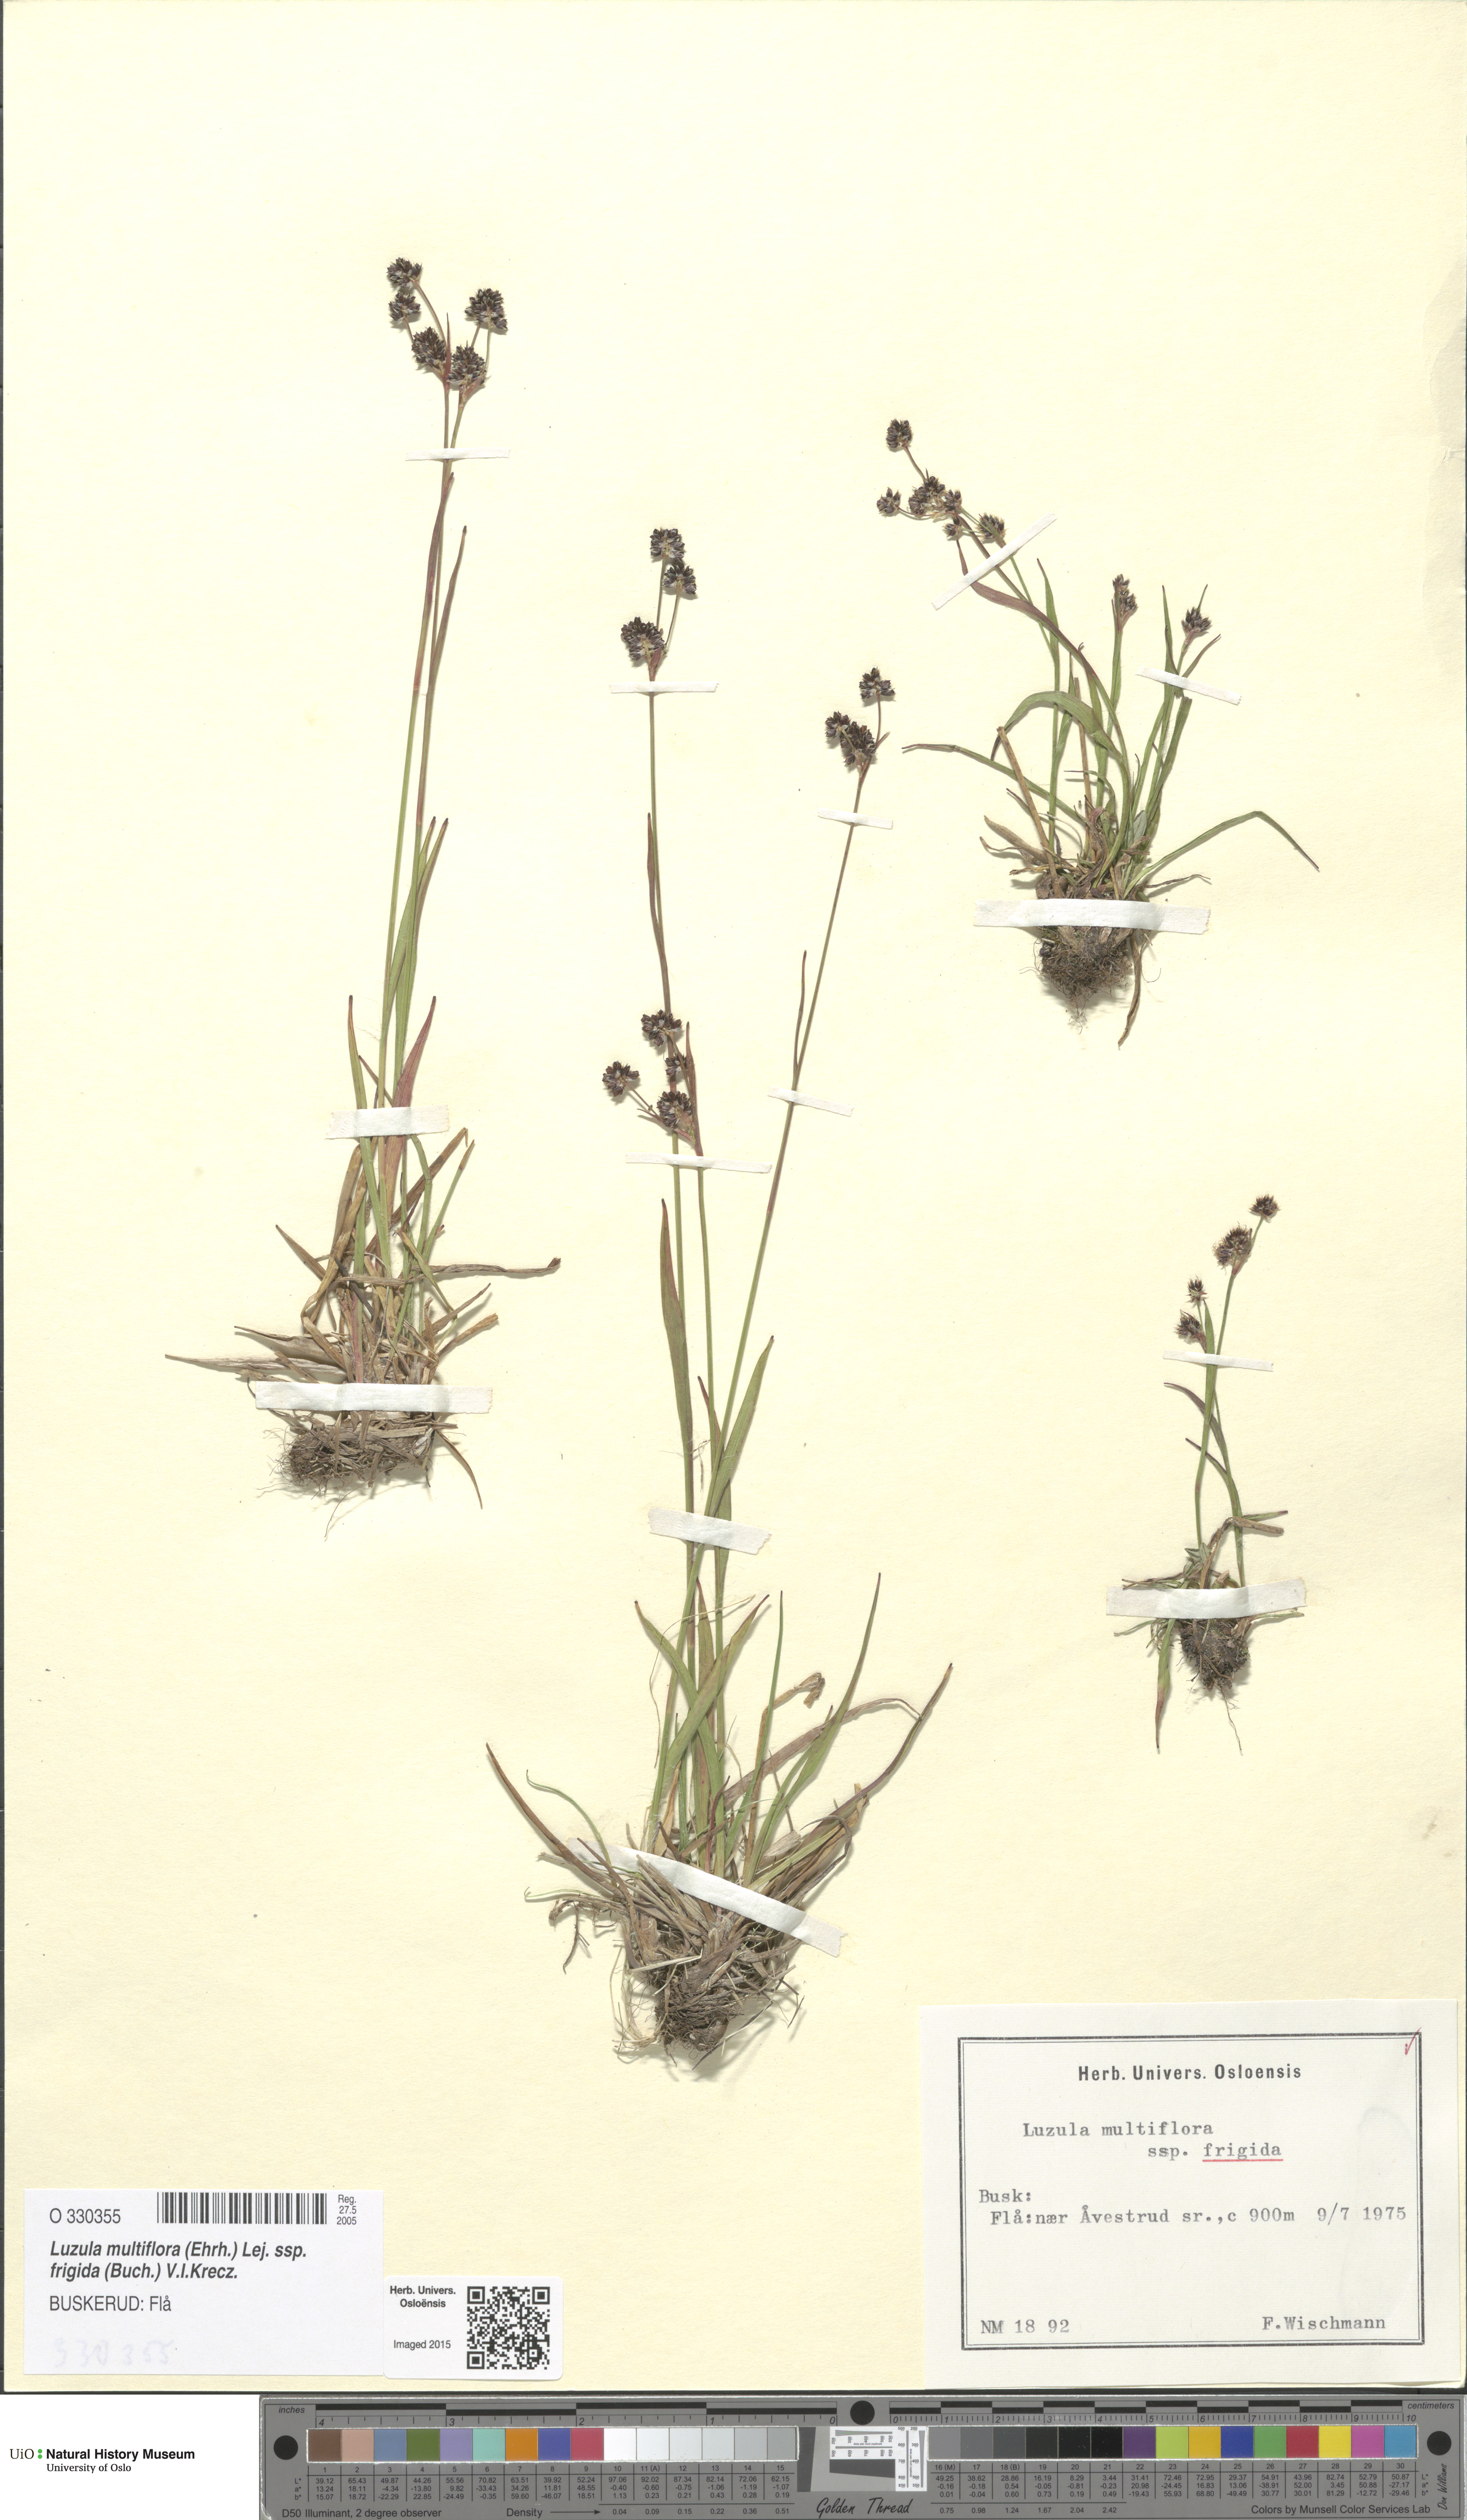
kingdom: Plantae
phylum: Tracheophyta
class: Liliopsida
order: Poales
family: Juncaceae
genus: Luzula
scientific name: Luzula multiflora
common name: Heath wood-rush
